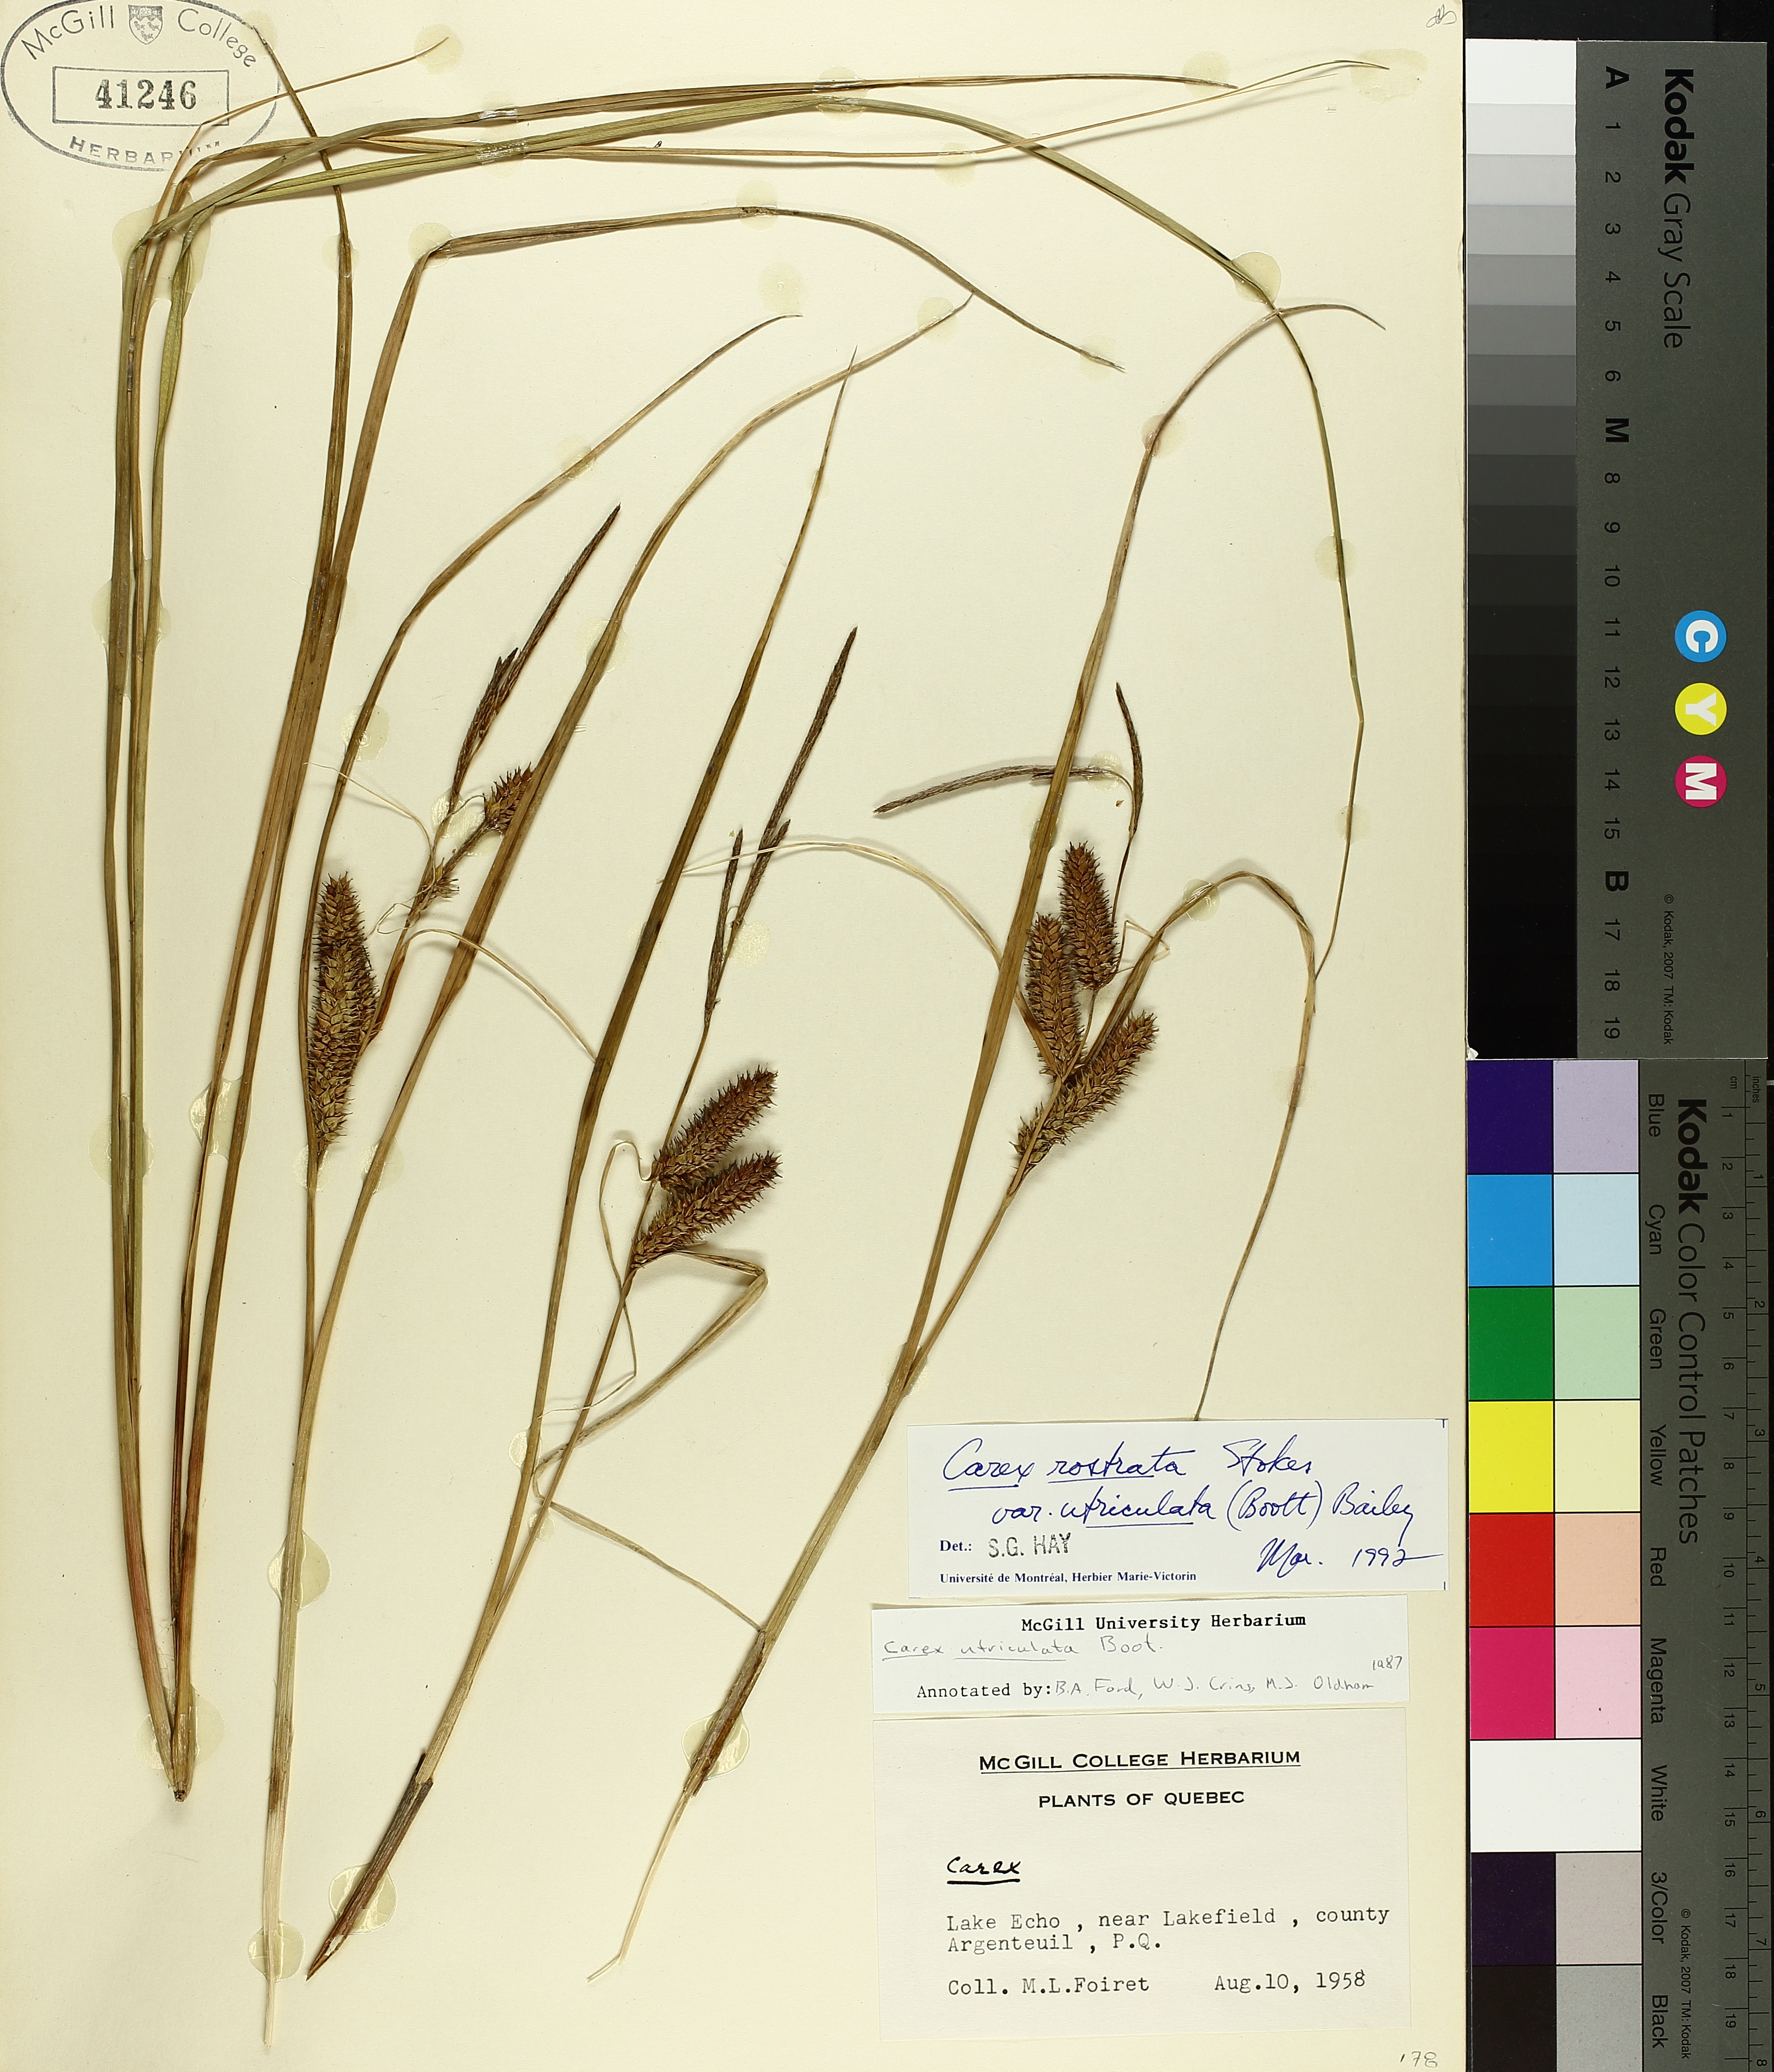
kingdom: Plantae
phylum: Tracheophyta
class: Liliopsida
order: Poales
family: Cyperaceae
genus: Carex
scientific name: Carex utriculata
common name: Beaked sedge
